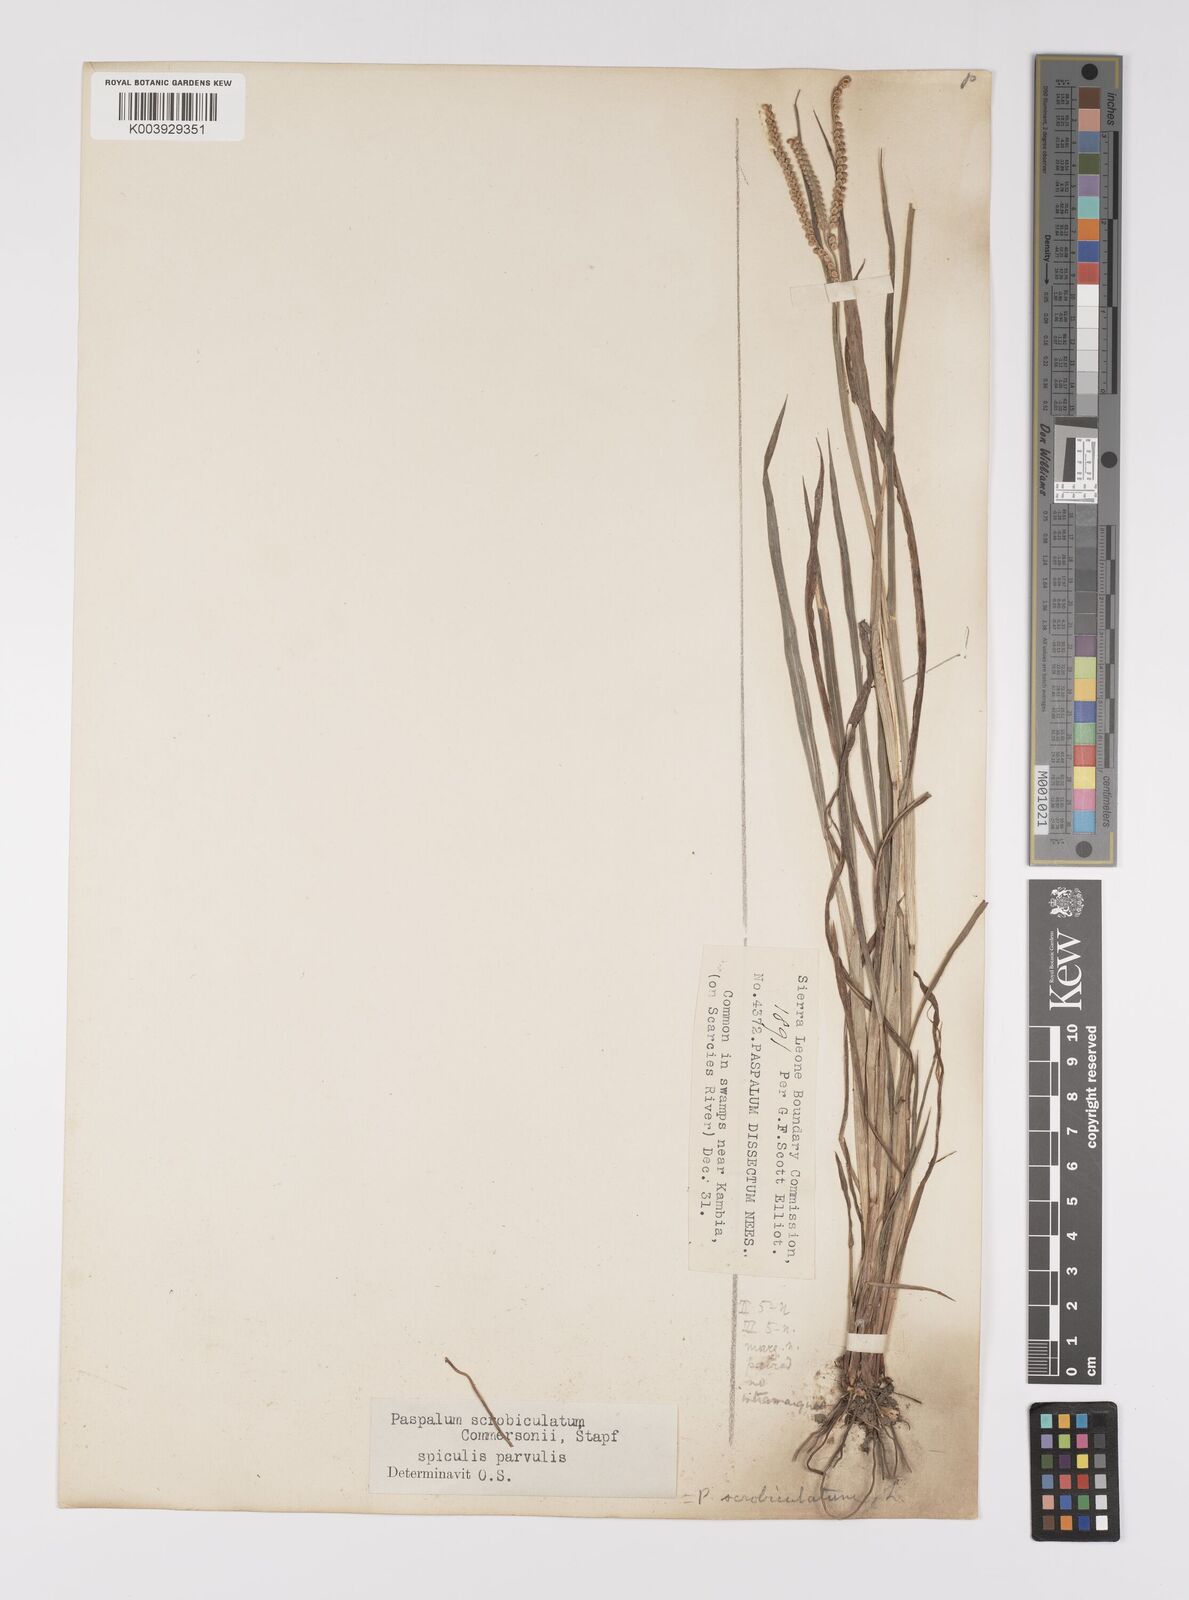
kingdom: Plantae
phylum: Tracheophyta
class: Liliopsida
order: Poales
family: Poaceae
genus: Paspalum
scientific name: Paspalum scrobiculatum
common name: Kodo millet
